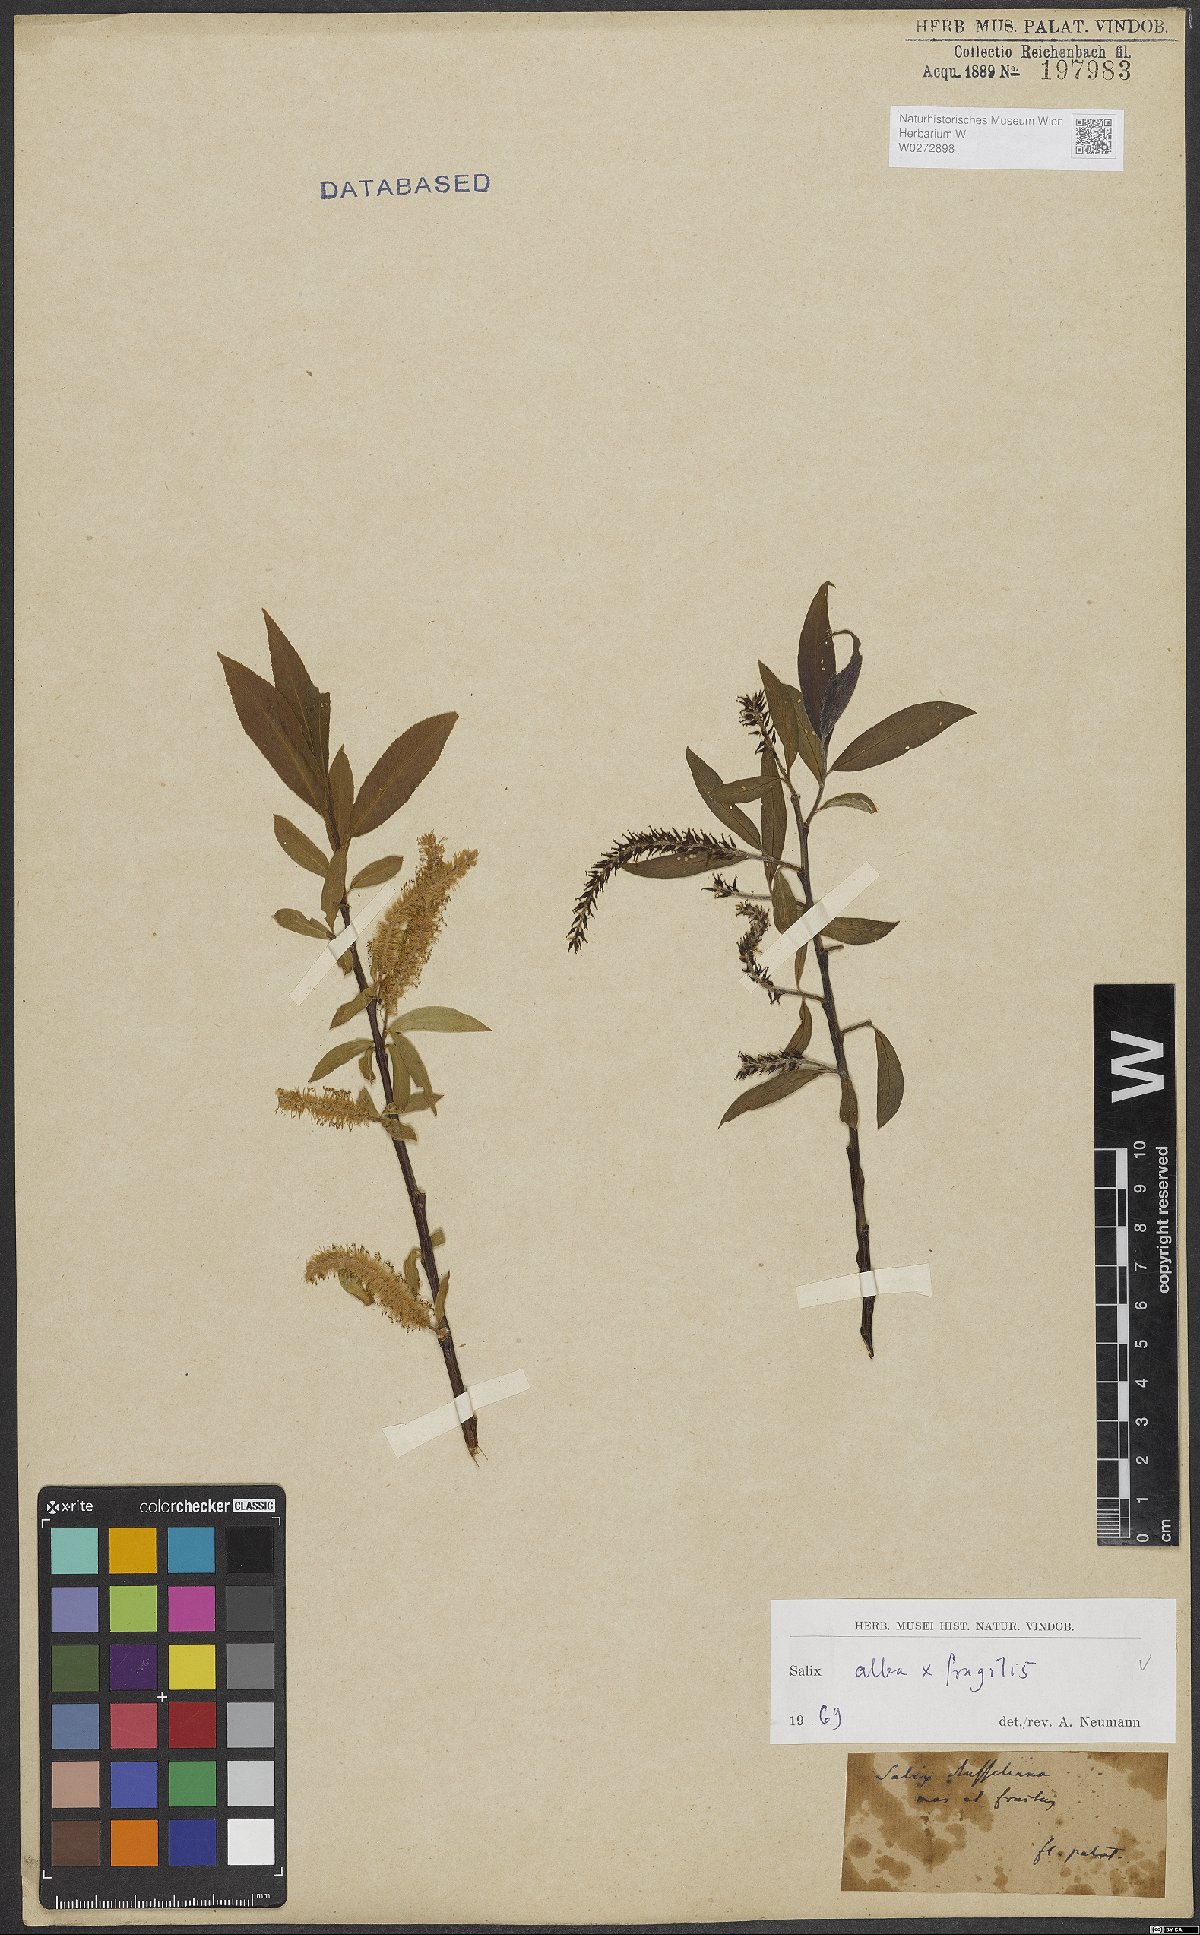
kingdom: Plantae
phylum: Tracheophyta
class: Magnoliopsida
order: Malpighiales
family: Salicaceae
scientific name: Salicaceae
